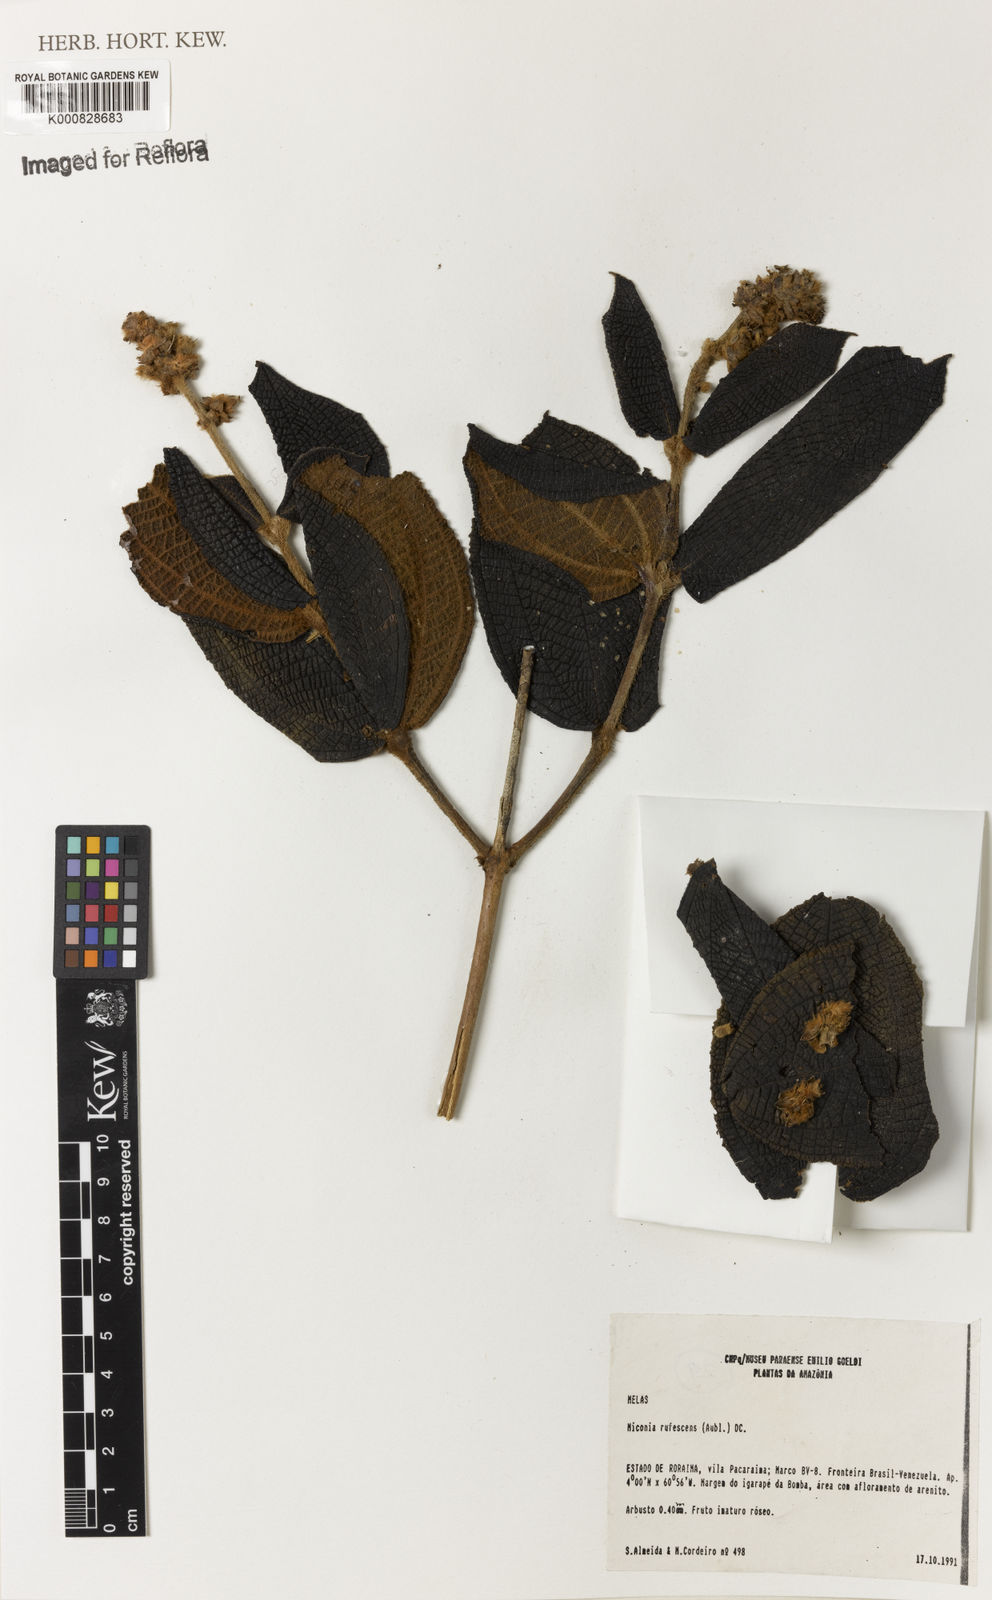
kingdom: Plantae
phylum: Tracheophyta
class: Magnoliopsida
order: Myrtales
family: Melastomataceae
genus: Miconia
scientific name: Miconia rufescens
